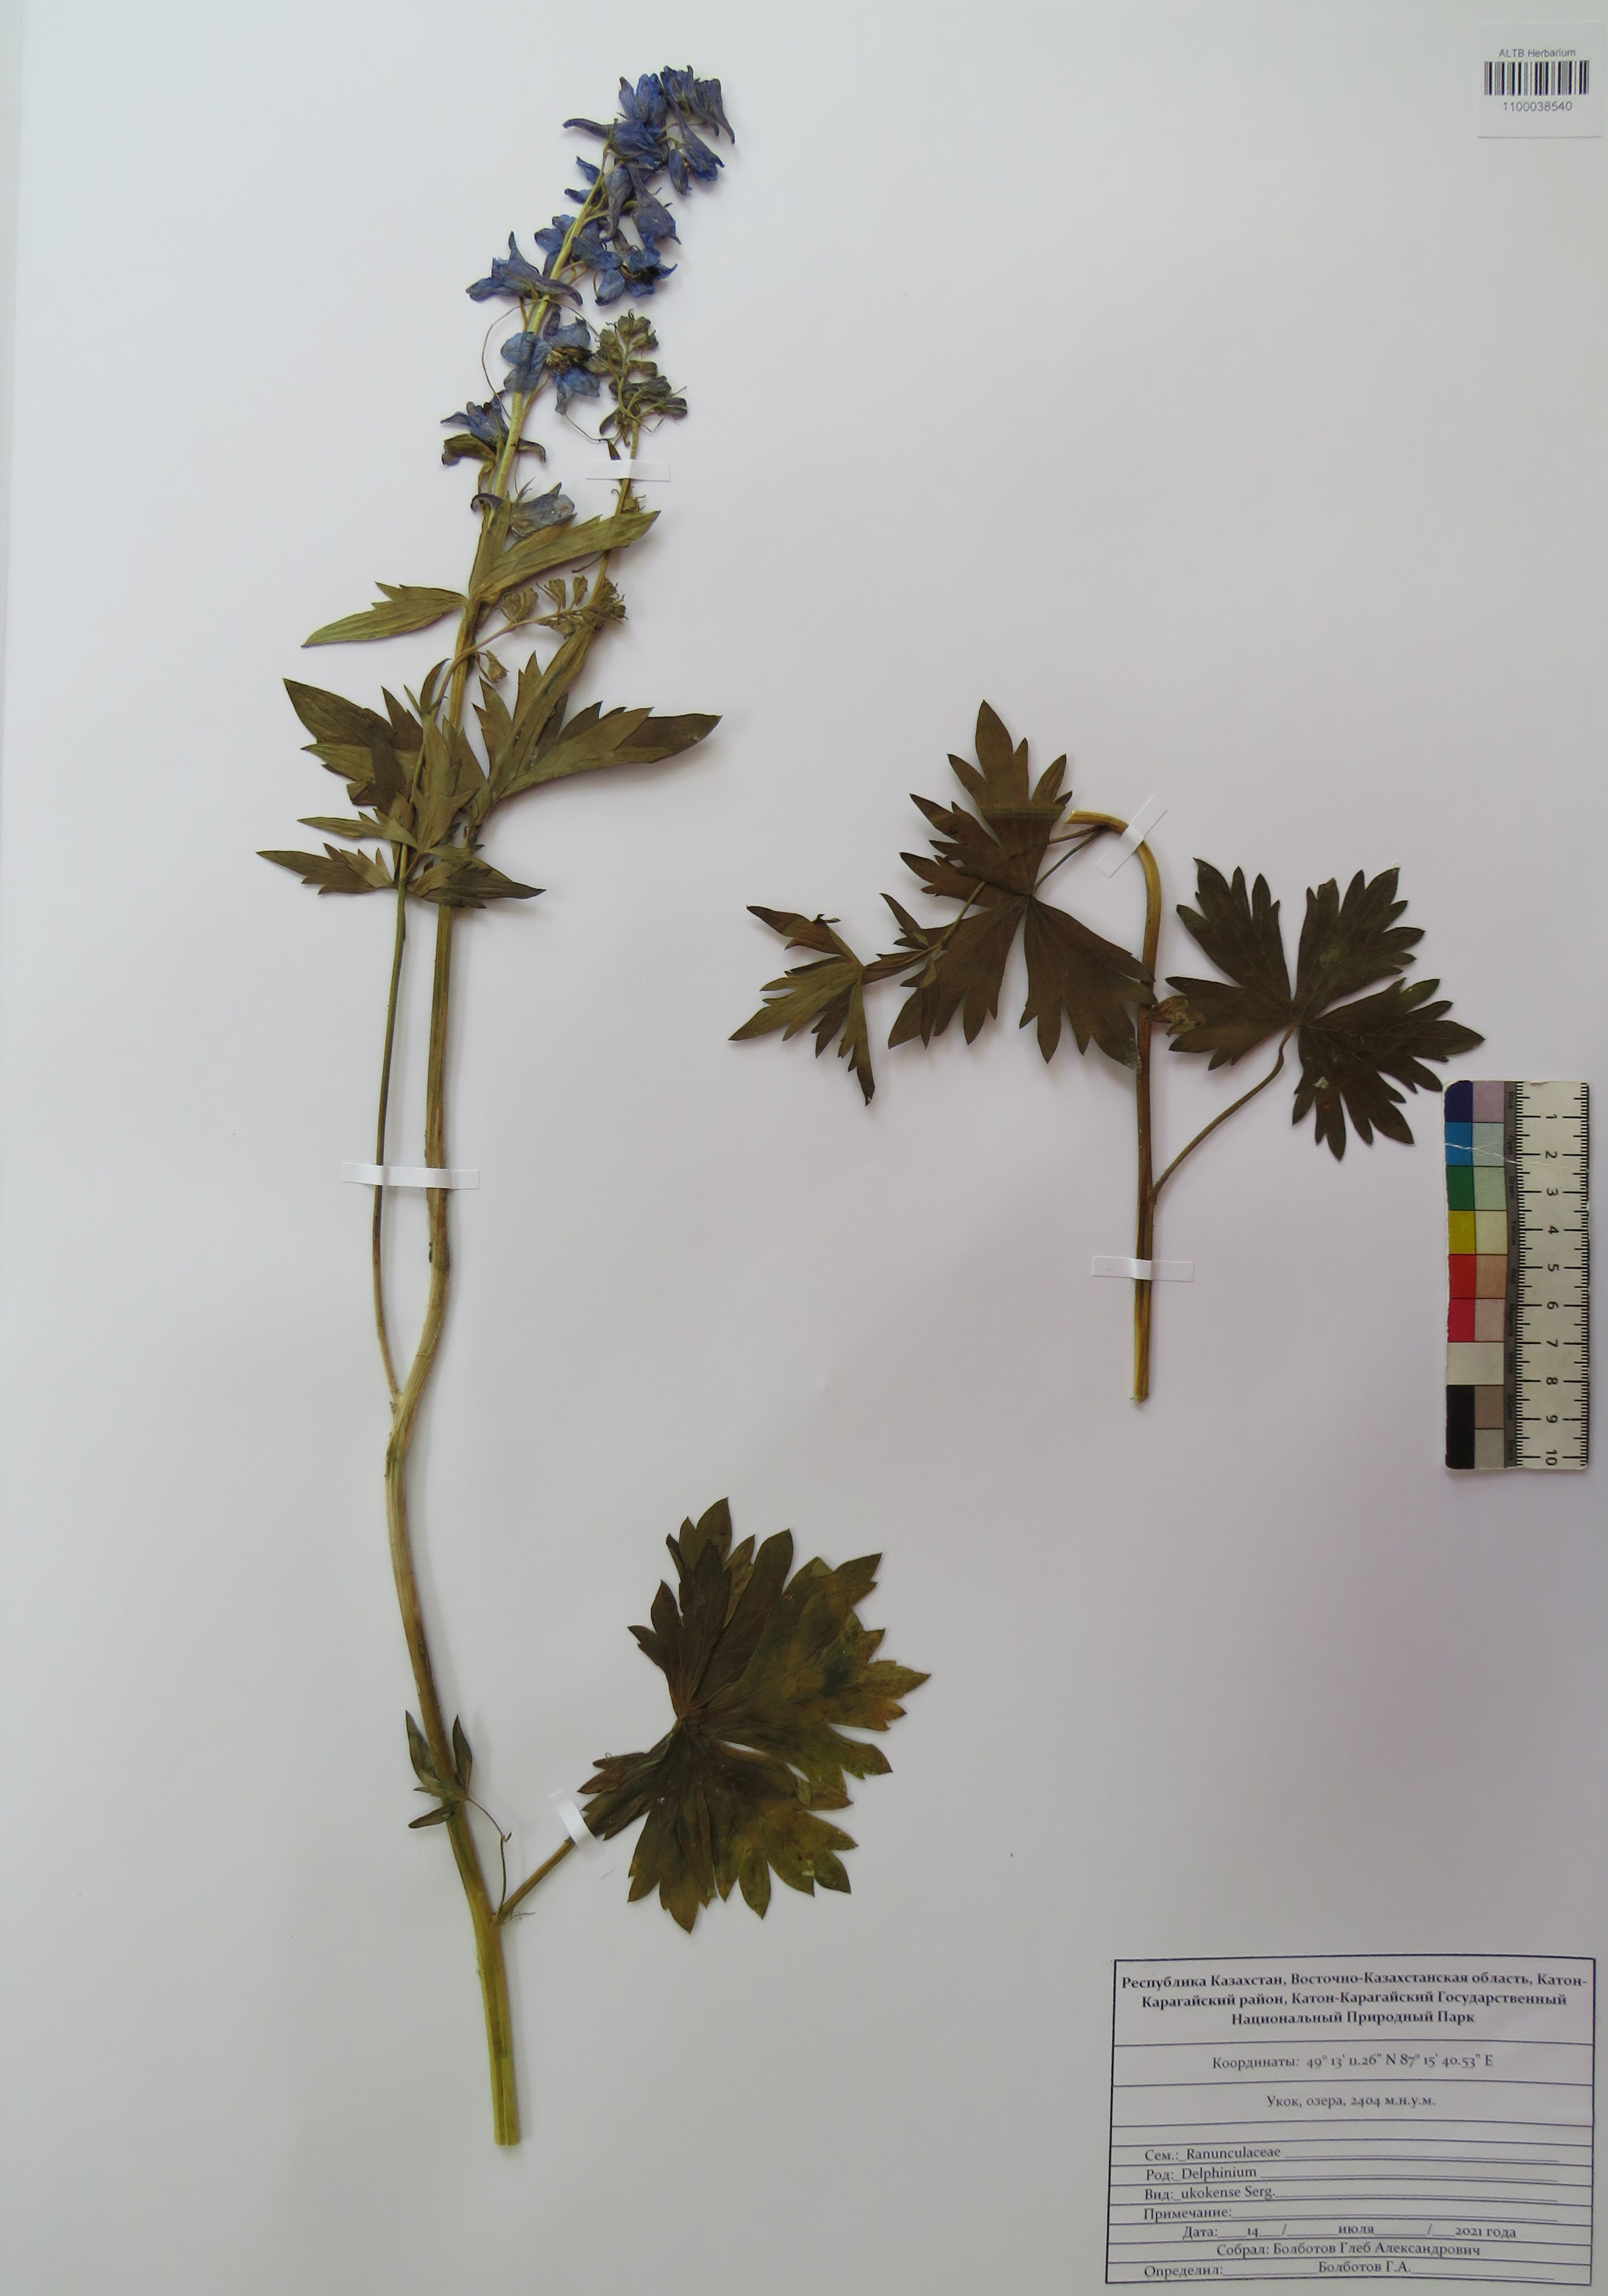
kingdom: Plantae
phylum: Tracheophyta
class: Magnoliopsida
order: Ranunculales
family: Ranunculaceae
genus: Delphinium
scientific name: Delphinium ukokense
